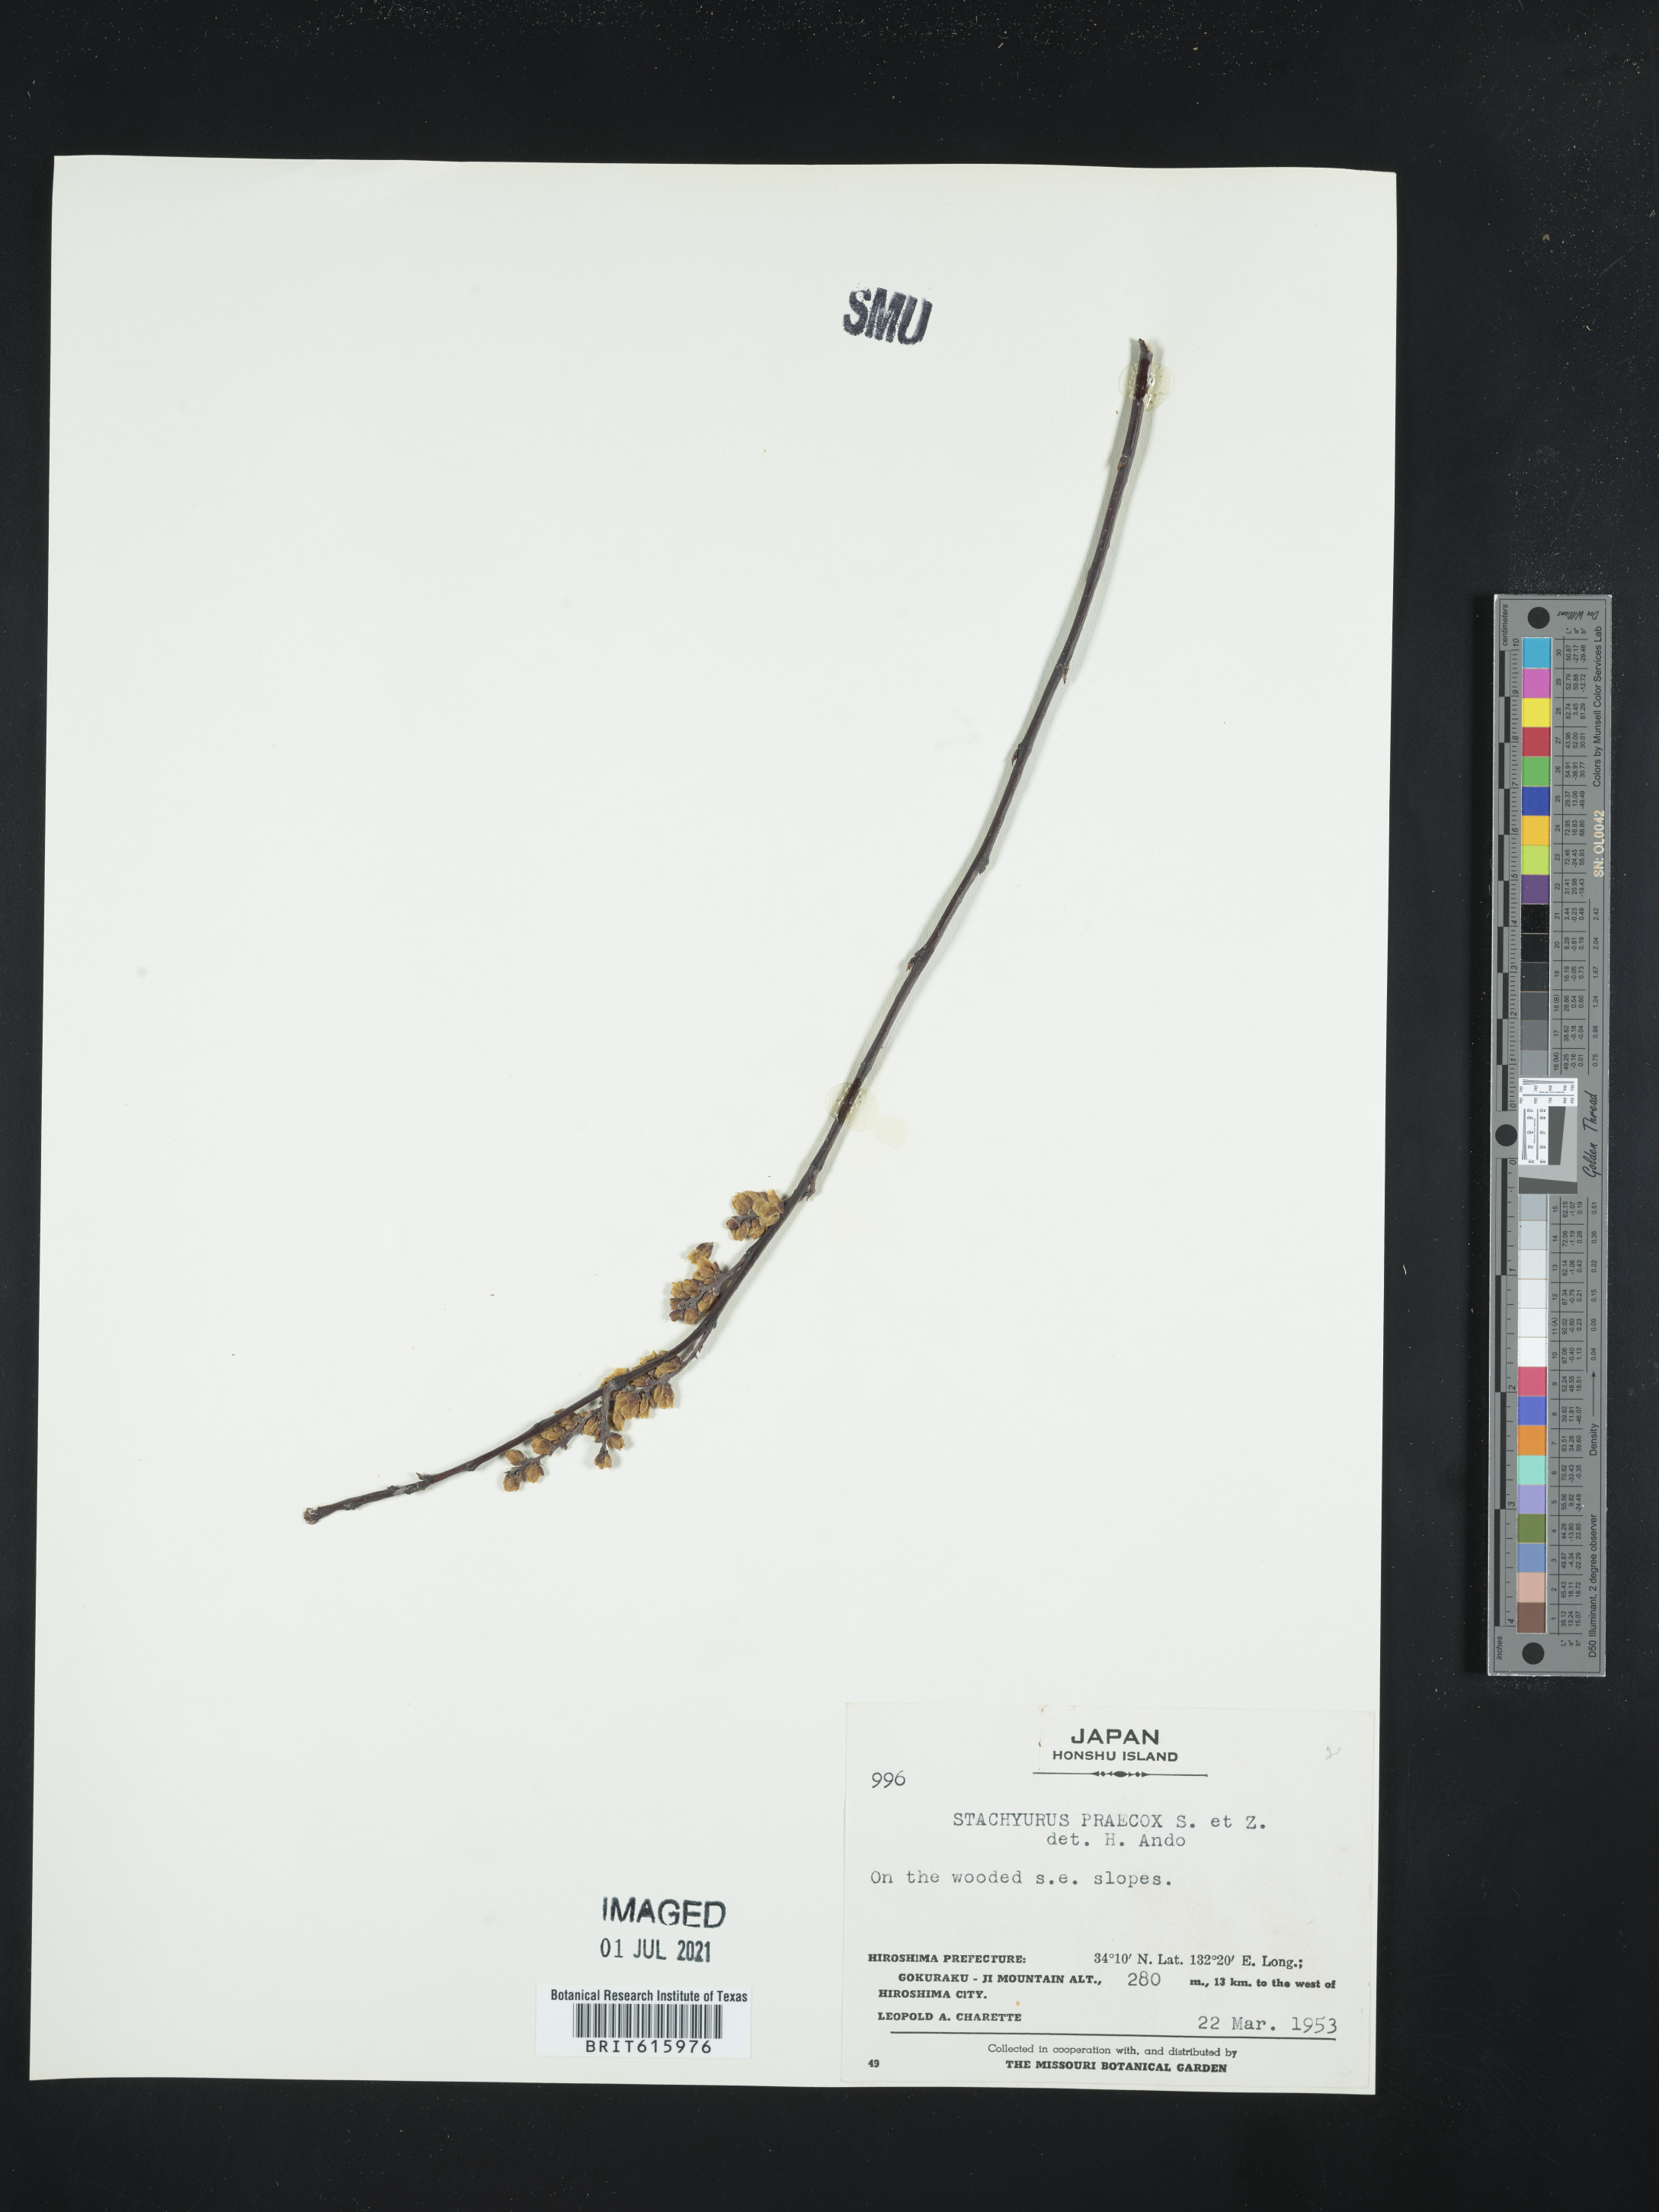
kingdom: Plantae
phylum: Tracheophyta
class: Magnoliopsida
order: Crossosomatales
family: Stachyuraceae
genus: Stachyurus
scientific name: Stachyurus praecox
